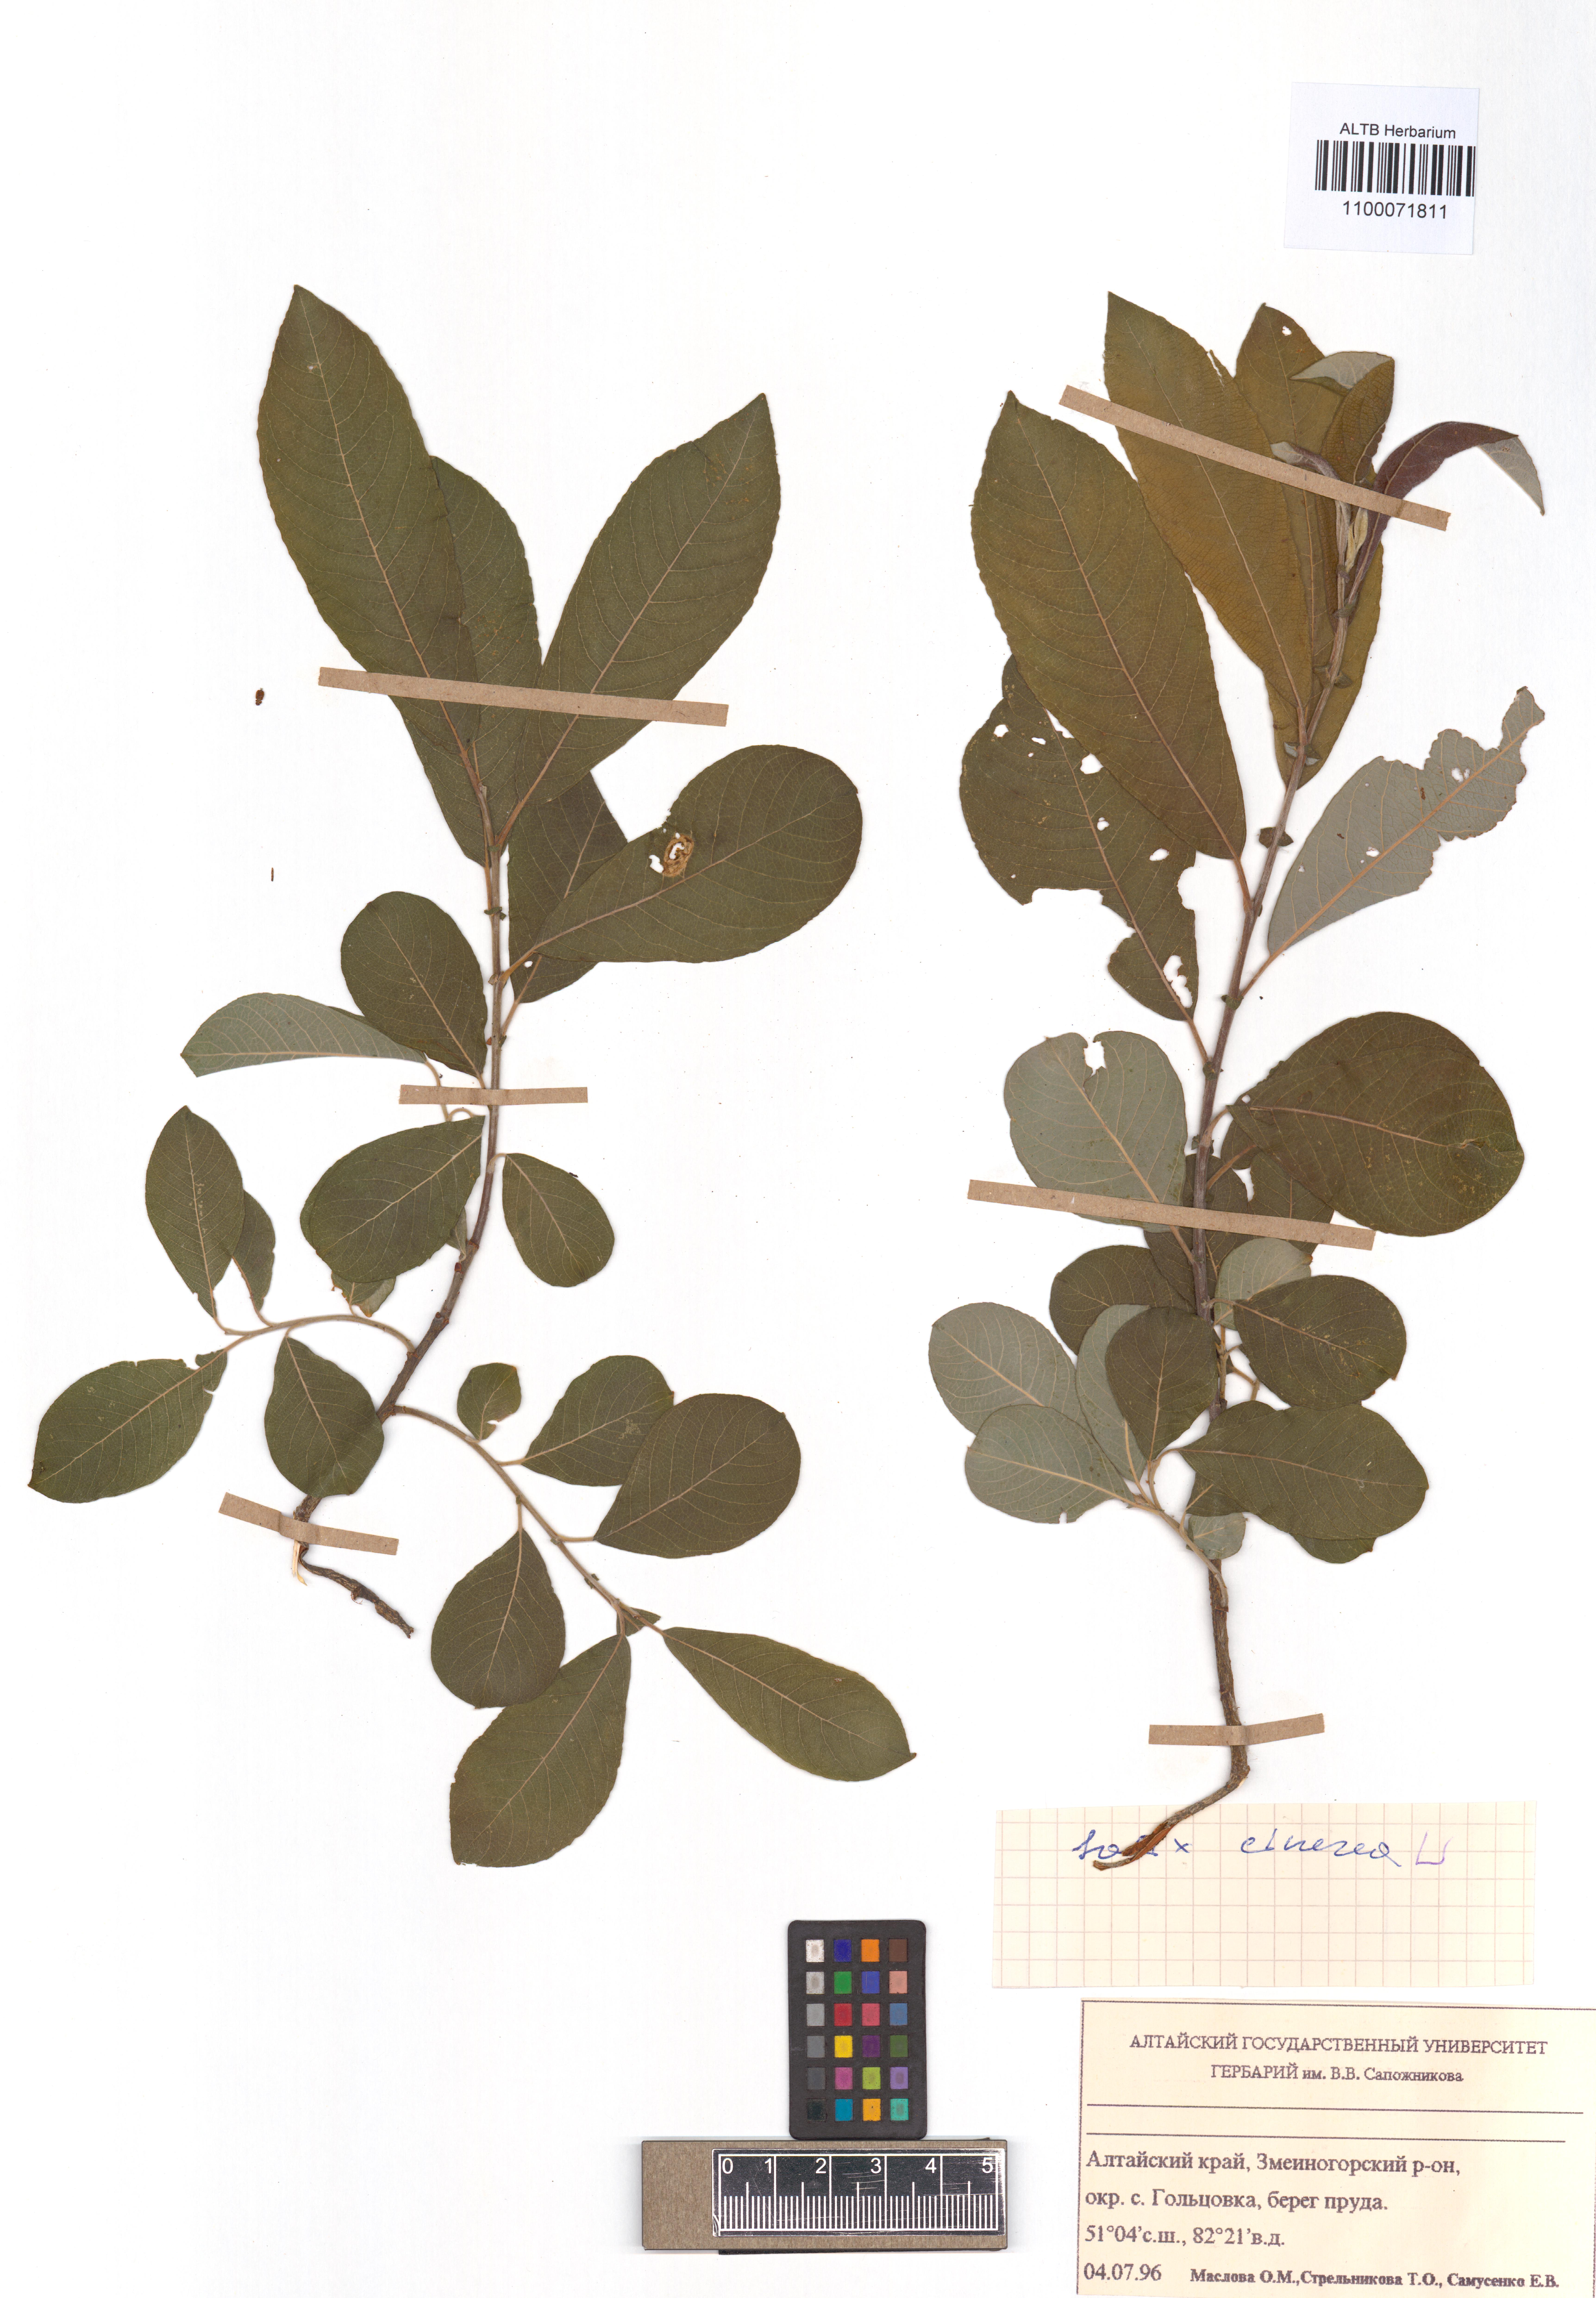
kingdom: Plantae
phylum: Tracheophyta
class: Magnoliopsida
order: Malpighiales
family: Salicaceae
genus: Salix
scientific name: Salix cinerea
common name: Common sallow
